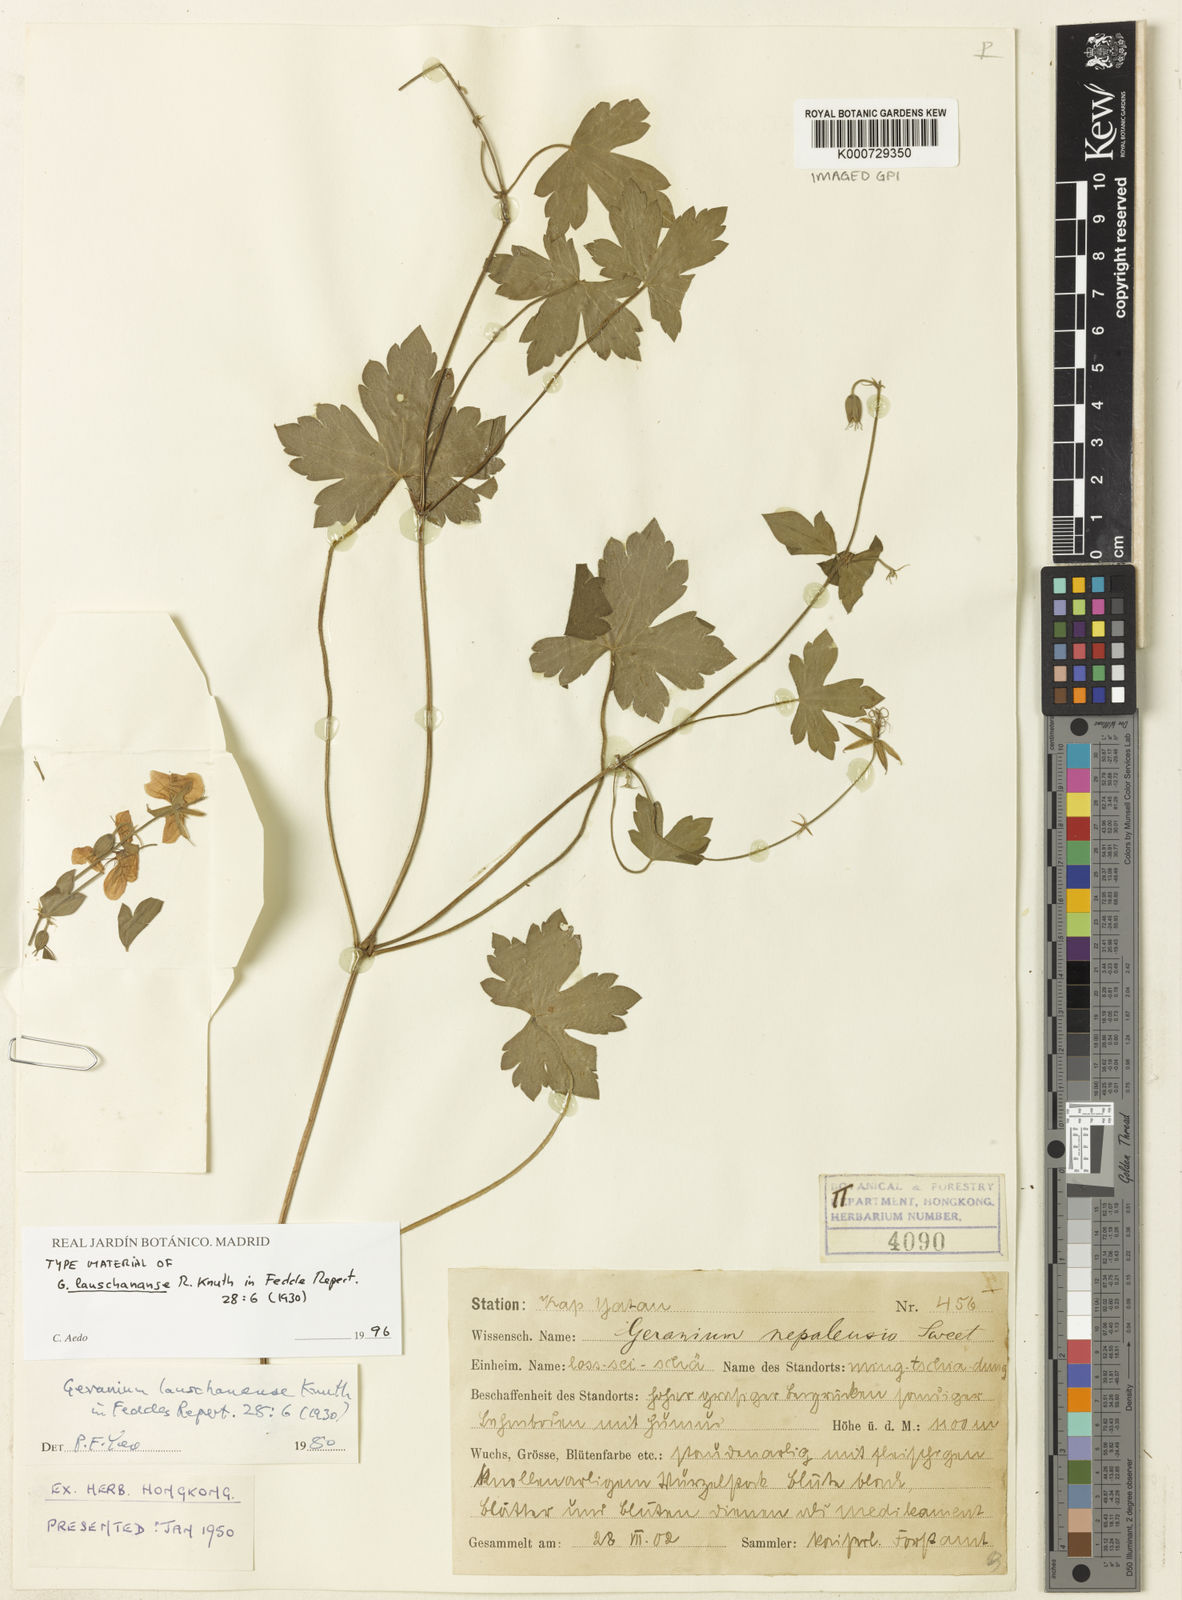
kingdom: Plantae
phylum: Tracheophyta
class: Magnoliopsida
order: Geraniales
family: Geraniaceae
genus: Geranium
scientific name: Geranium koreanum
